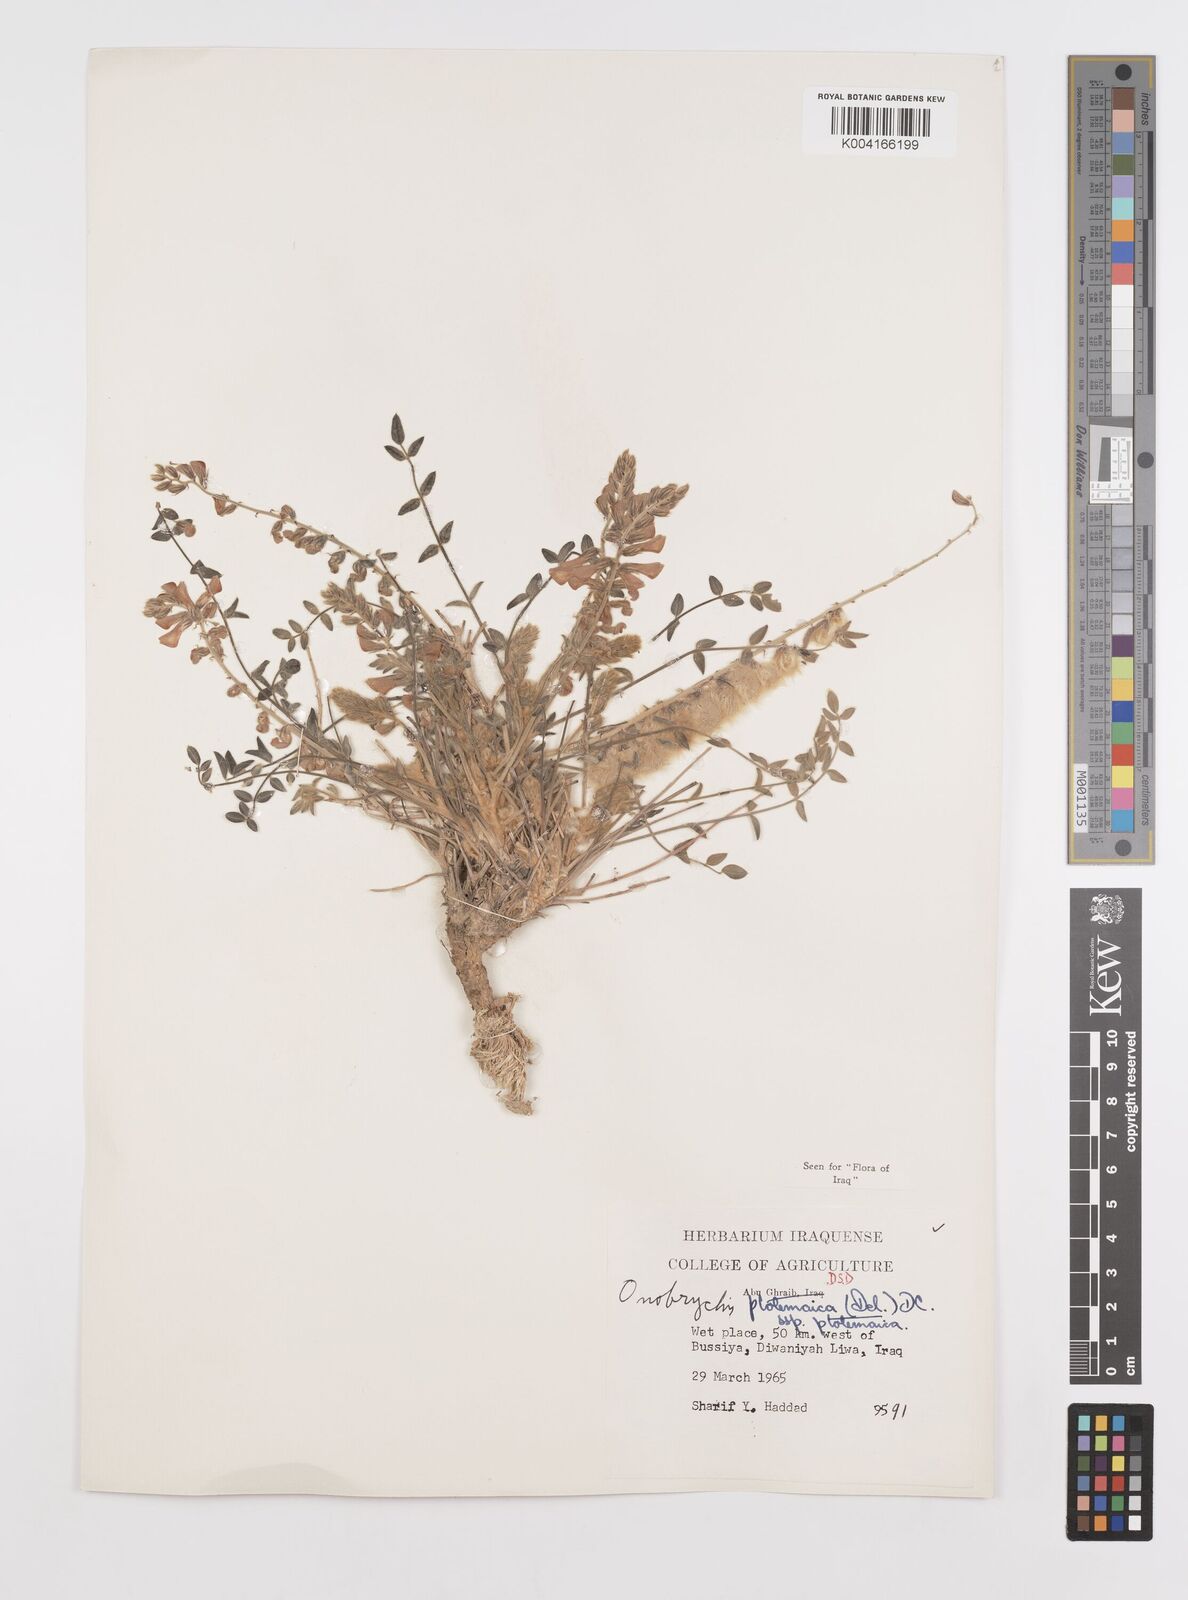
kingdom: Plantae
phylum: Tracheophyta
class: Magnoliopsida
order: Fabales
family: Fabaceae
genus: Onobrychis
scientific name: Onobrychis ptolemaica
